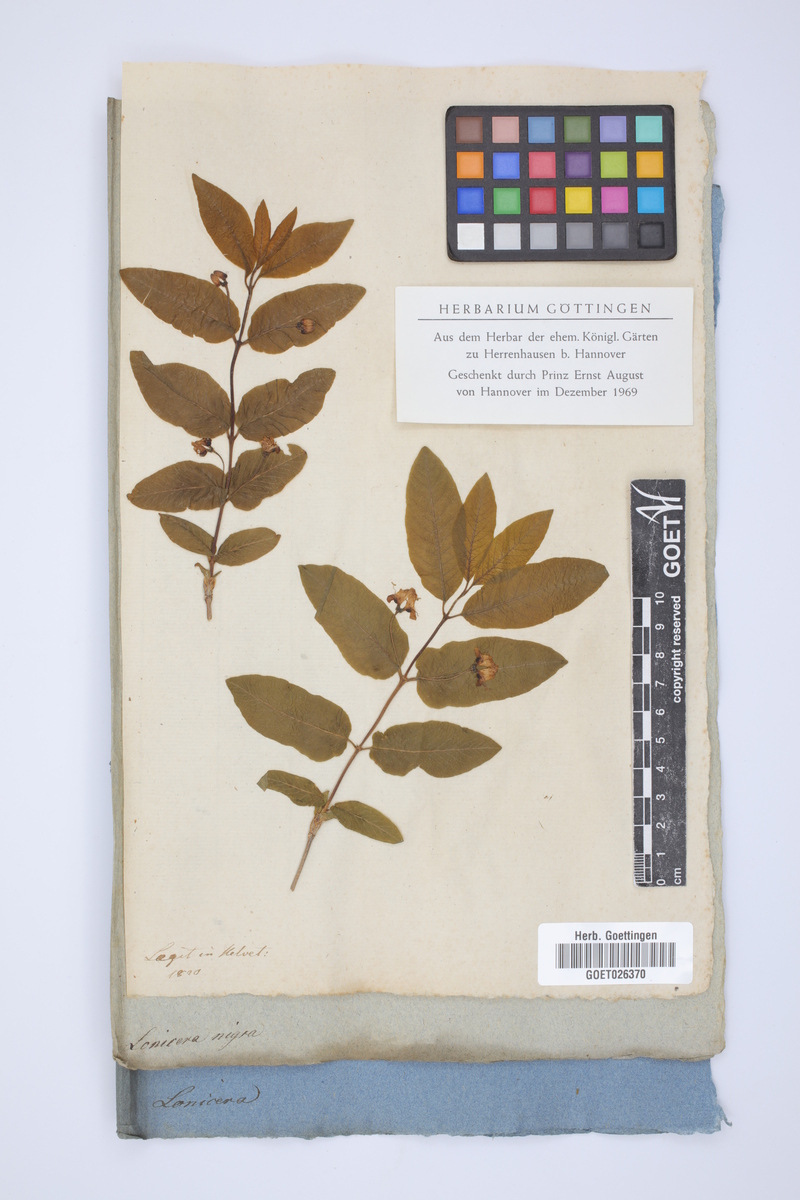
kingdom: Plantae
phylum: Tracheophyta
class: Magnoliopsida
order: Dipsacales
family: Caprifoliaceae
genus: Lonicera
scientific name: Lonicera nigra
